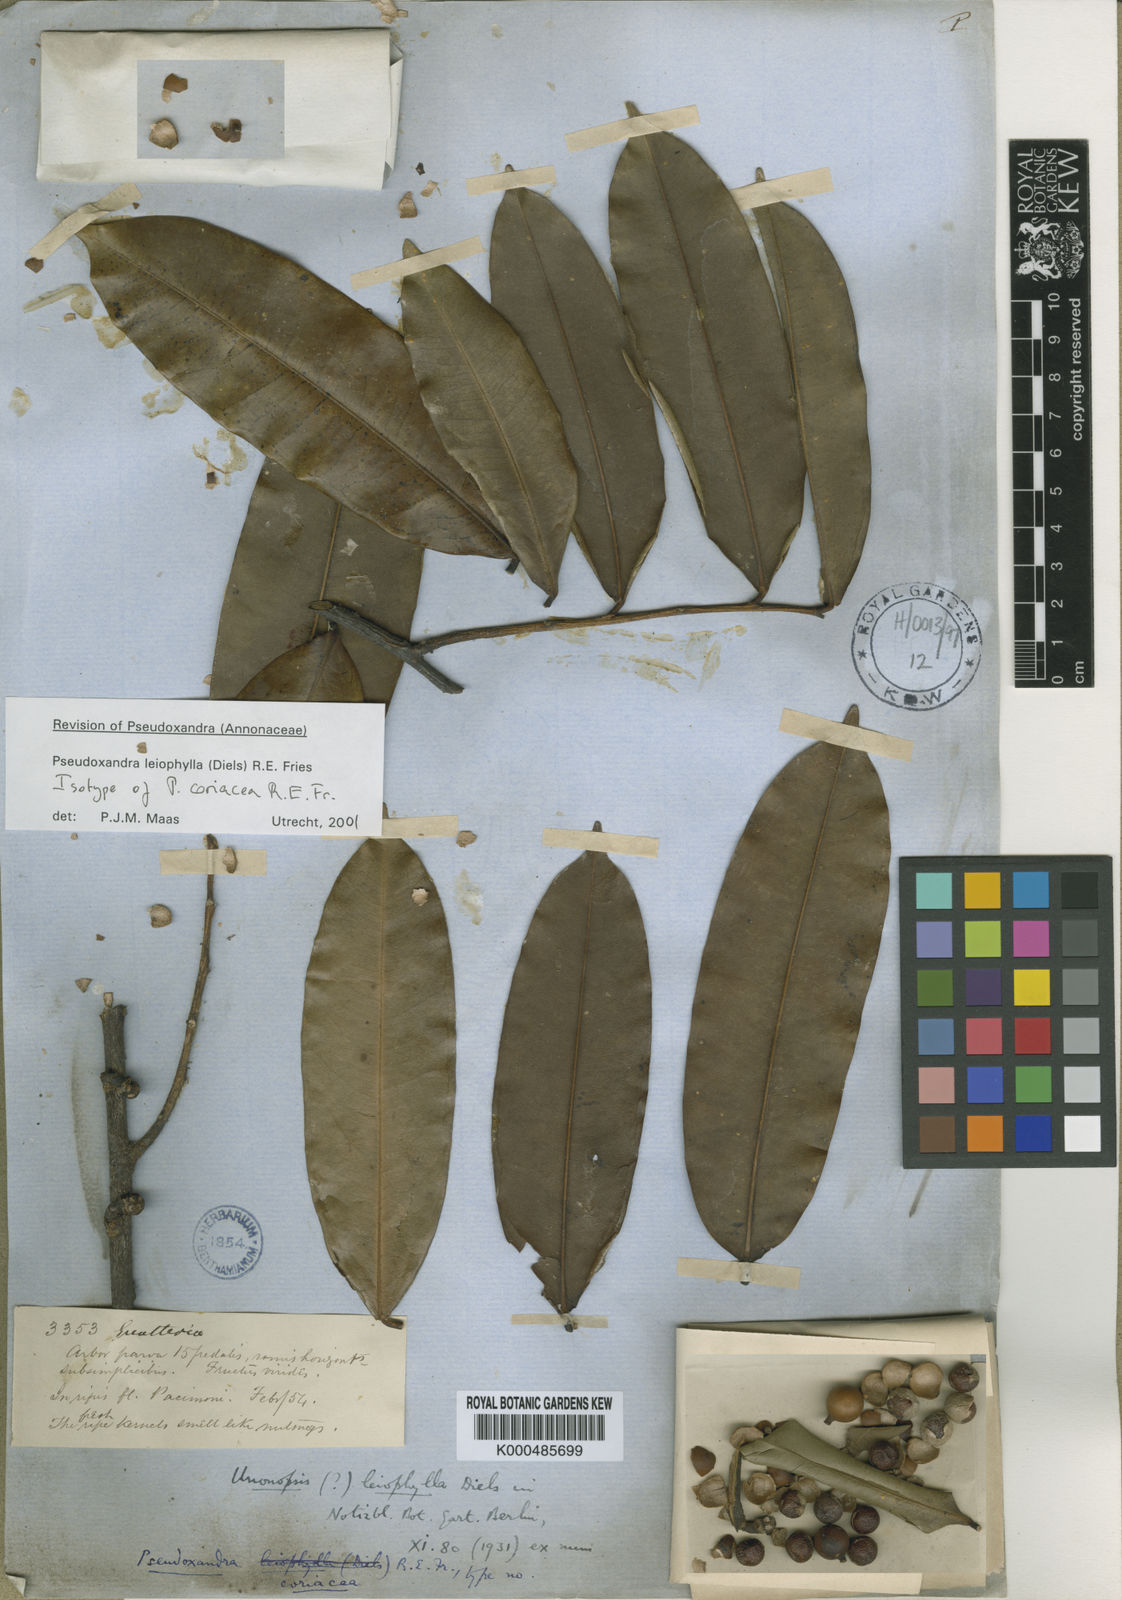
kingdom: Plantae
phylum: Tracheophyta
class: Magnoliopsida
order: Magnoliales
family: Annonaceae
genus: Pseudoxandra
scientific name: Pseudoxandra leiophylla
